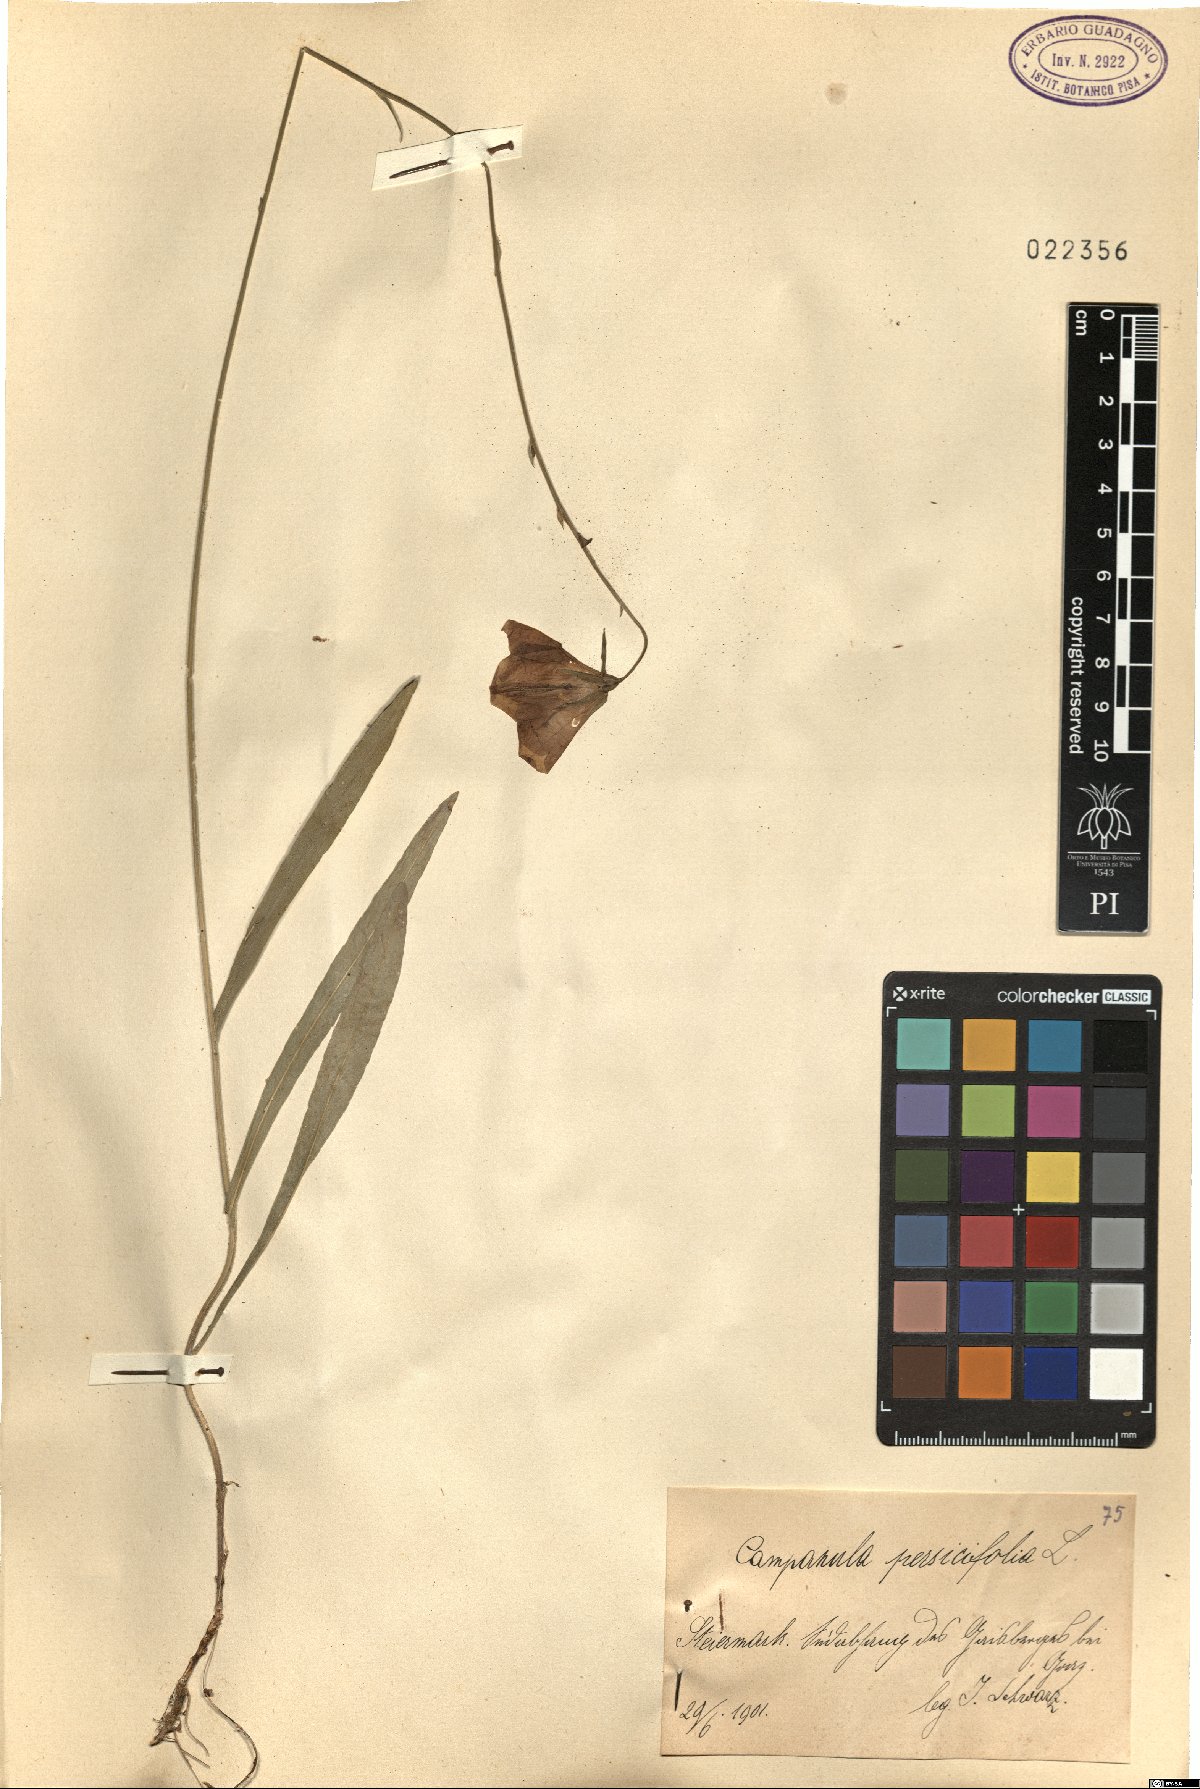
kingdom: Plantae
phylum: Tracheophyta
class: Magnoliopsida
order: Asterales
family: Campanulaceae
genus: Campanula
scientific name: Campanula persicifolia
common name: Peach-leaved bellflower
